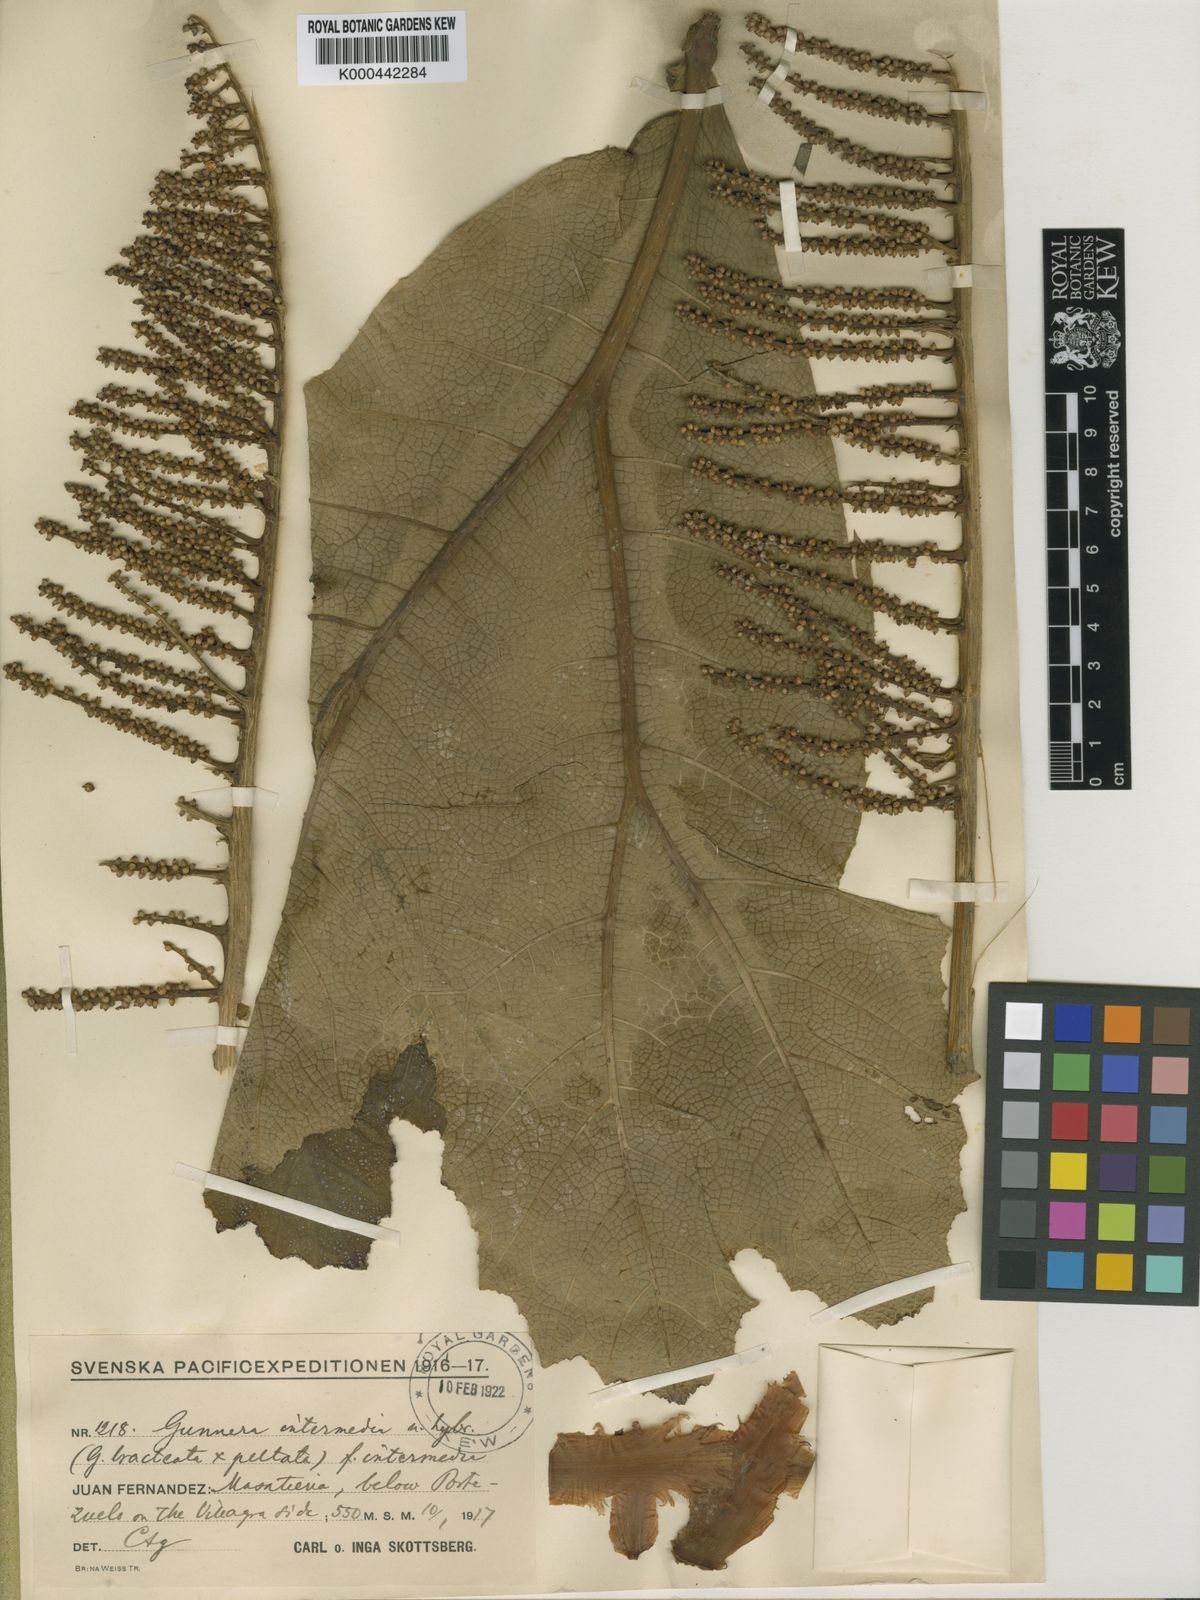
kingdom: Plantae
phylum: Tracheophyta
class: Magnoliopsida
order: Gunnerales
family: Gunneraceae
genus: Gunnera
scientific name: Gunnera
